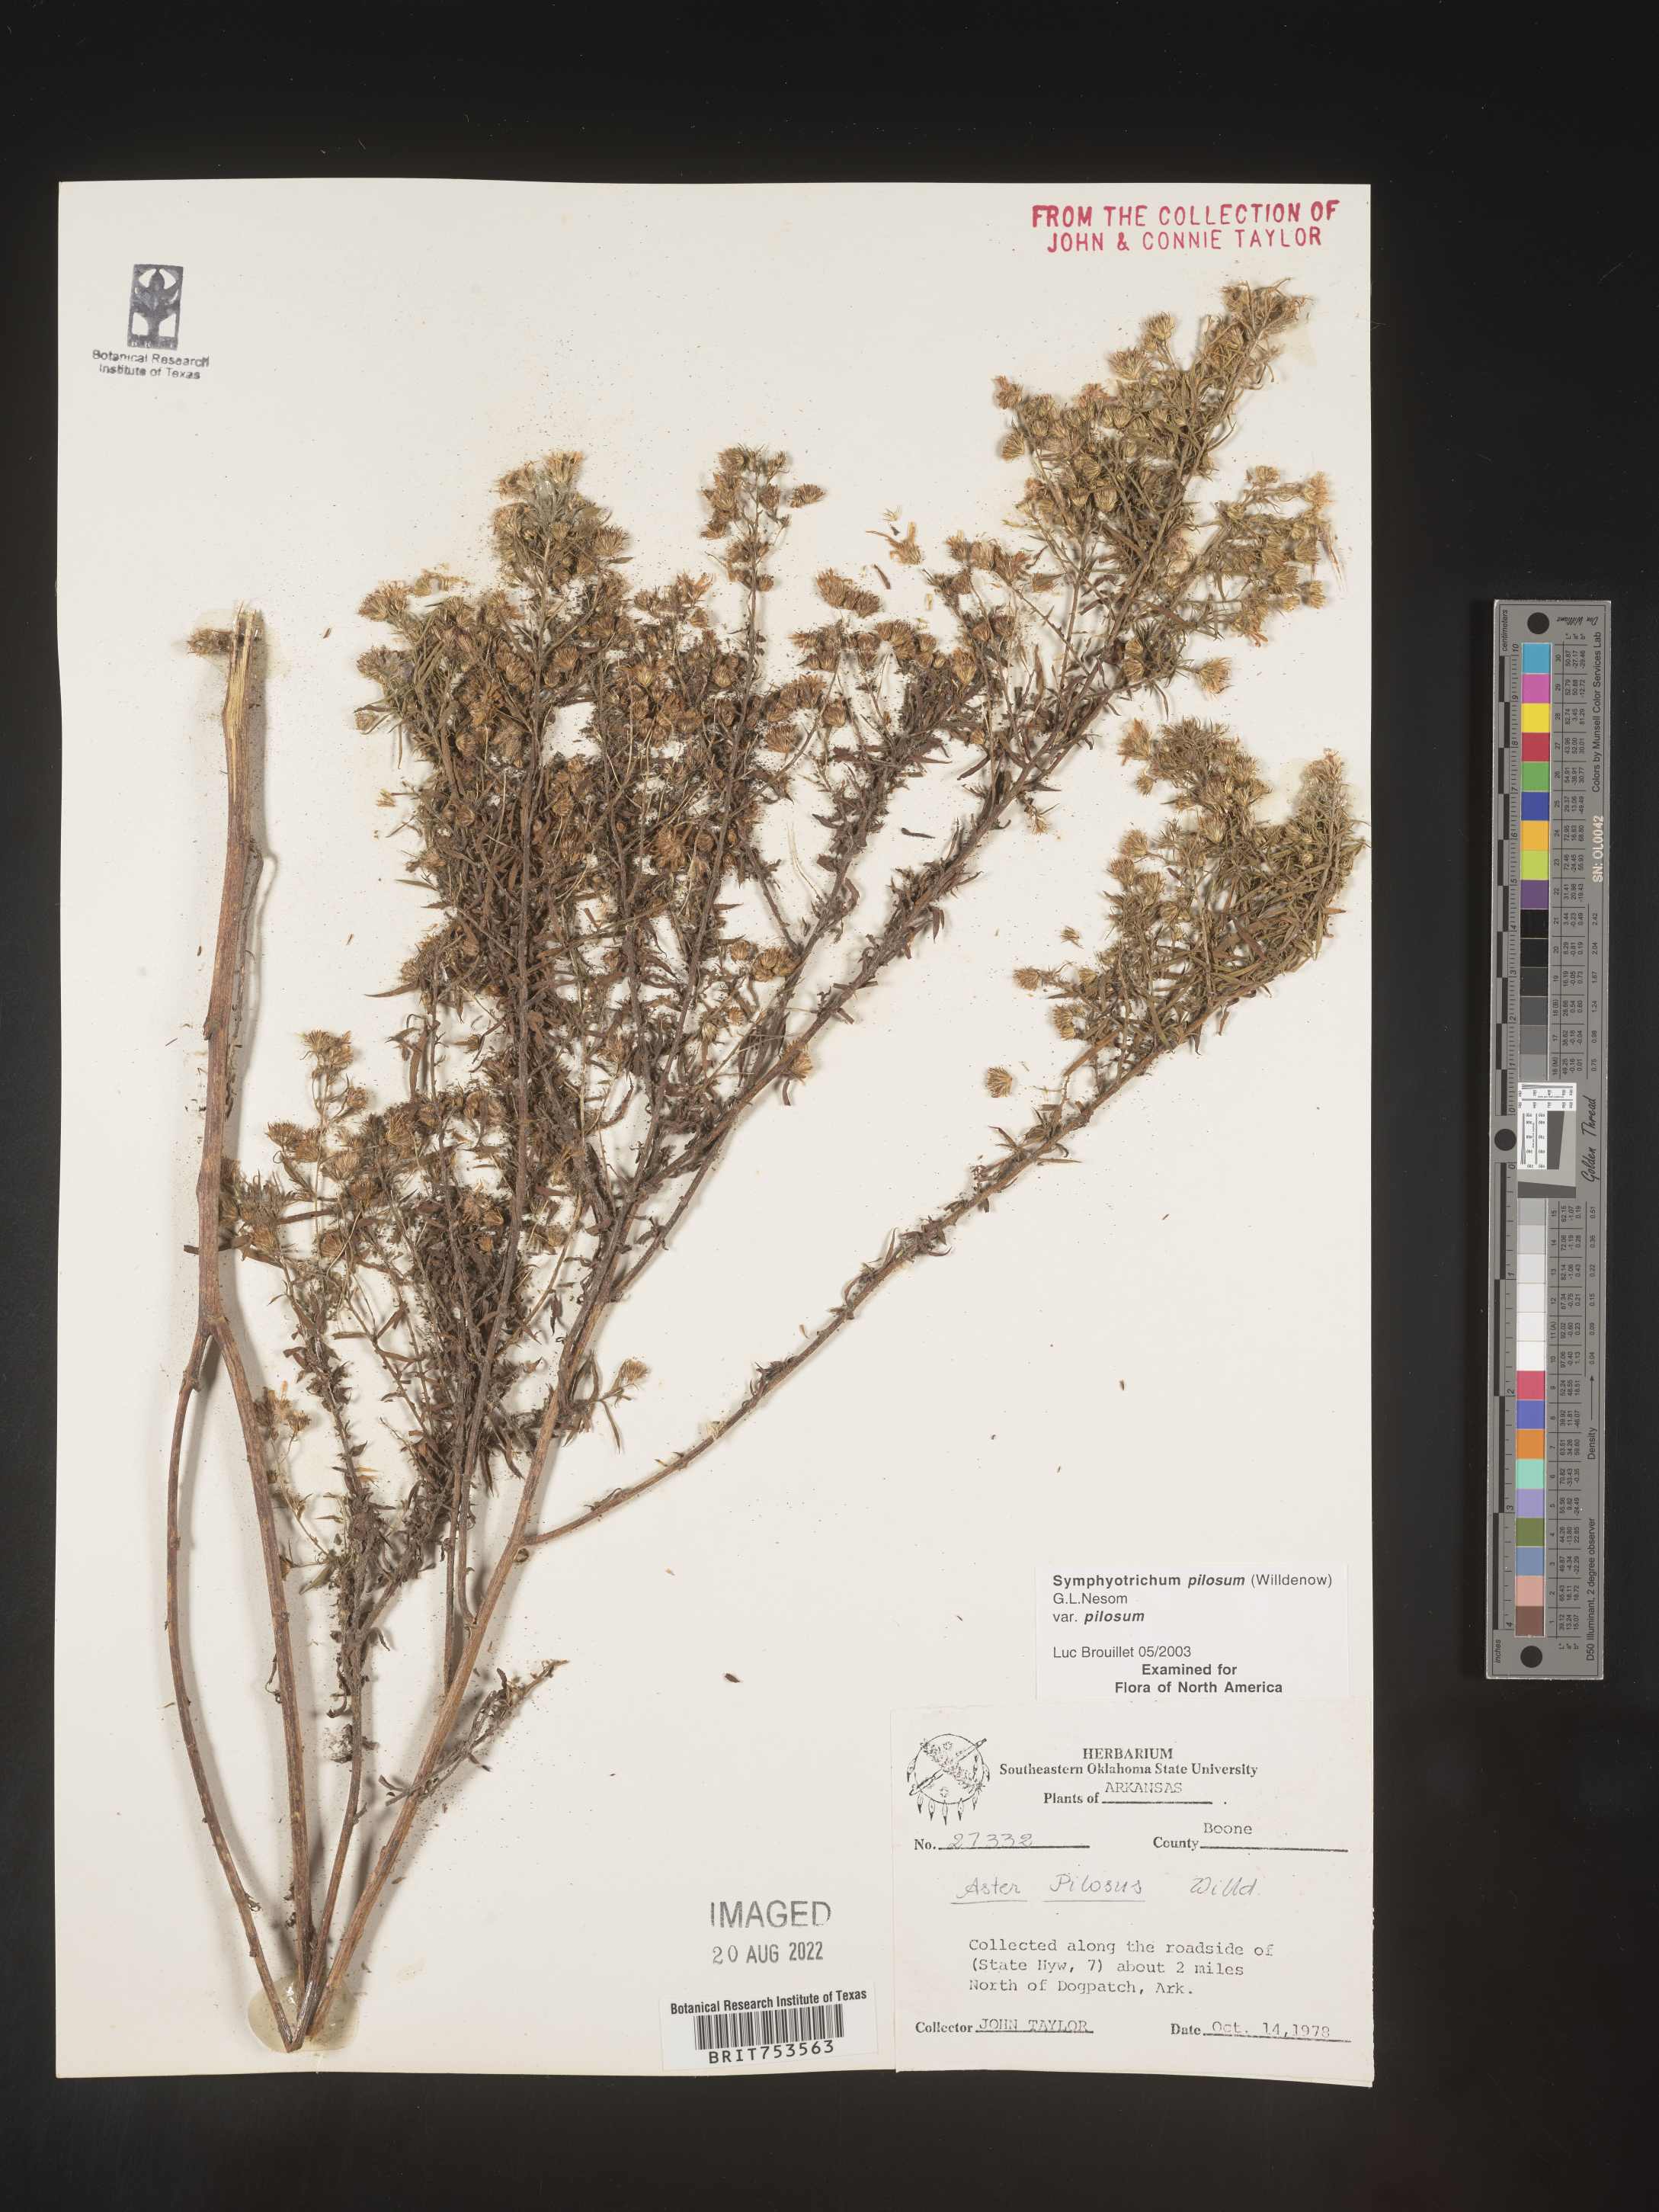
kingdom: Plantae
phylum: Tracheophyta
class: Magnoliopsida
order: Asterales
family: Asteraceae
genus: Symphyotrichum
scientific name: Symphyotrichum pilosum
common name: Awl aster
